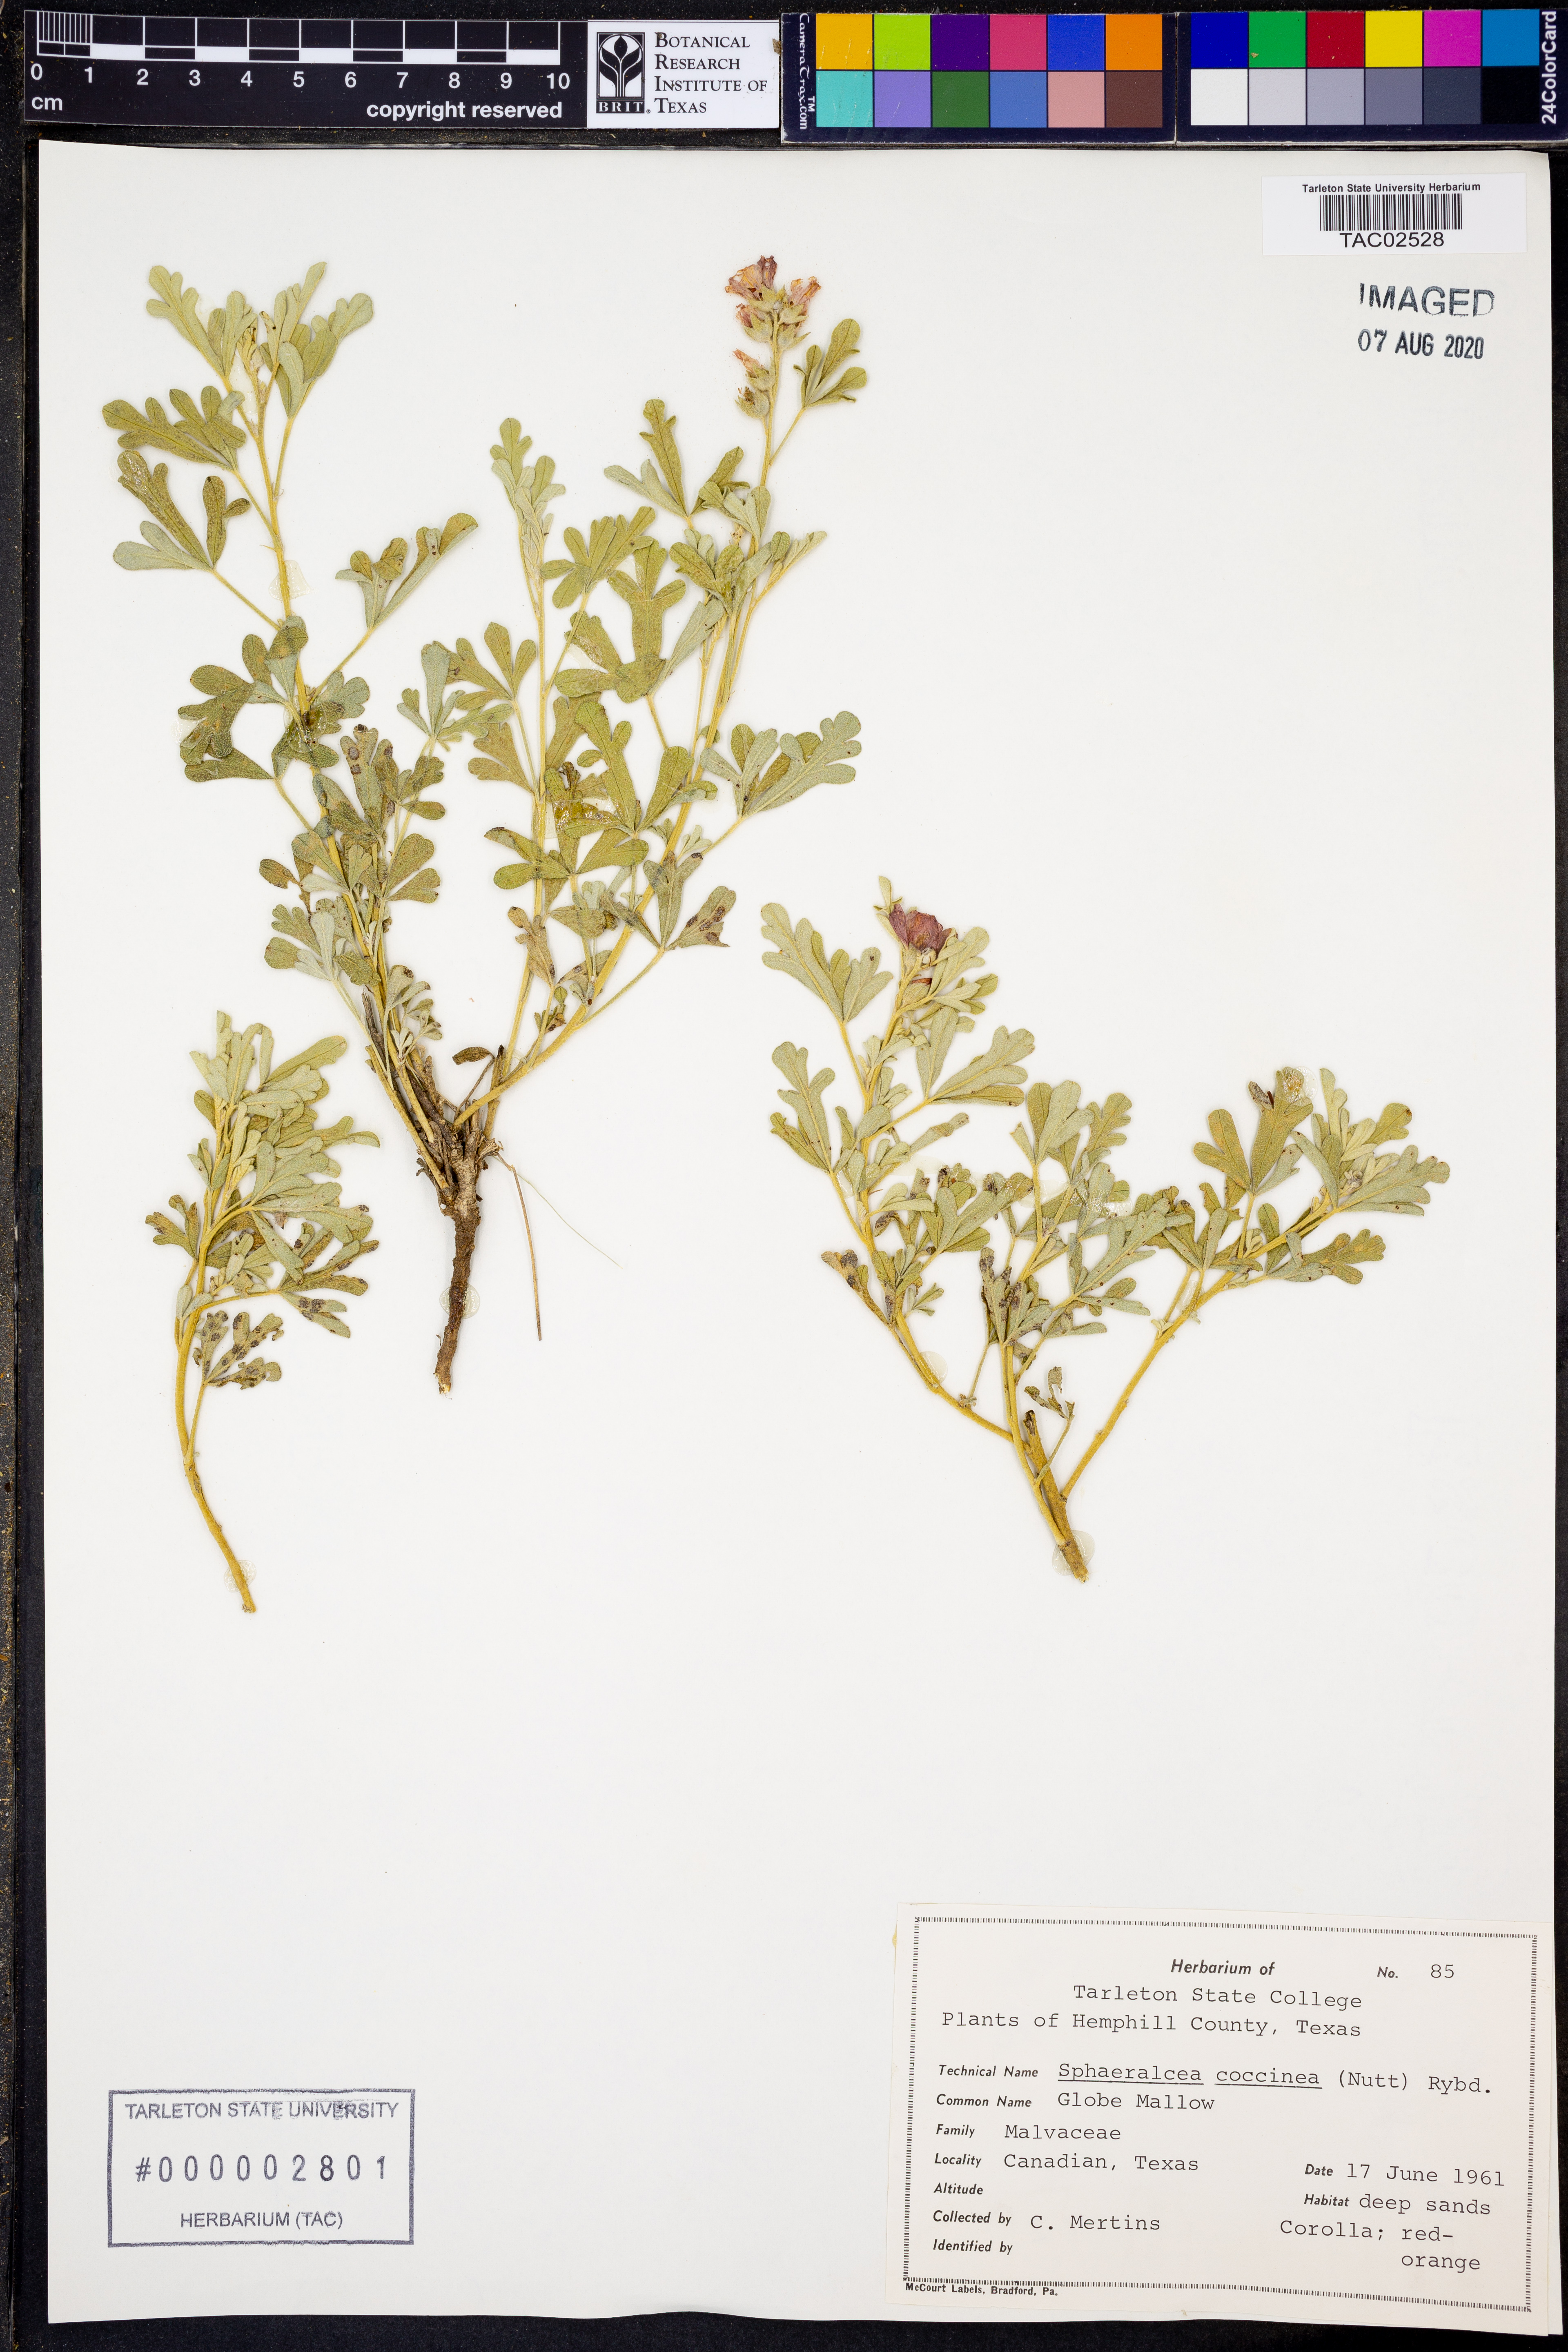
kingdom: Plantae
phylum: Tracheophyta
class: Magnoliopsida
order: Malvales
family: Malvaceae
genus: Sphaeralcea
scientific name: Sphaeralcea coccinea
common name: Moss-rose
